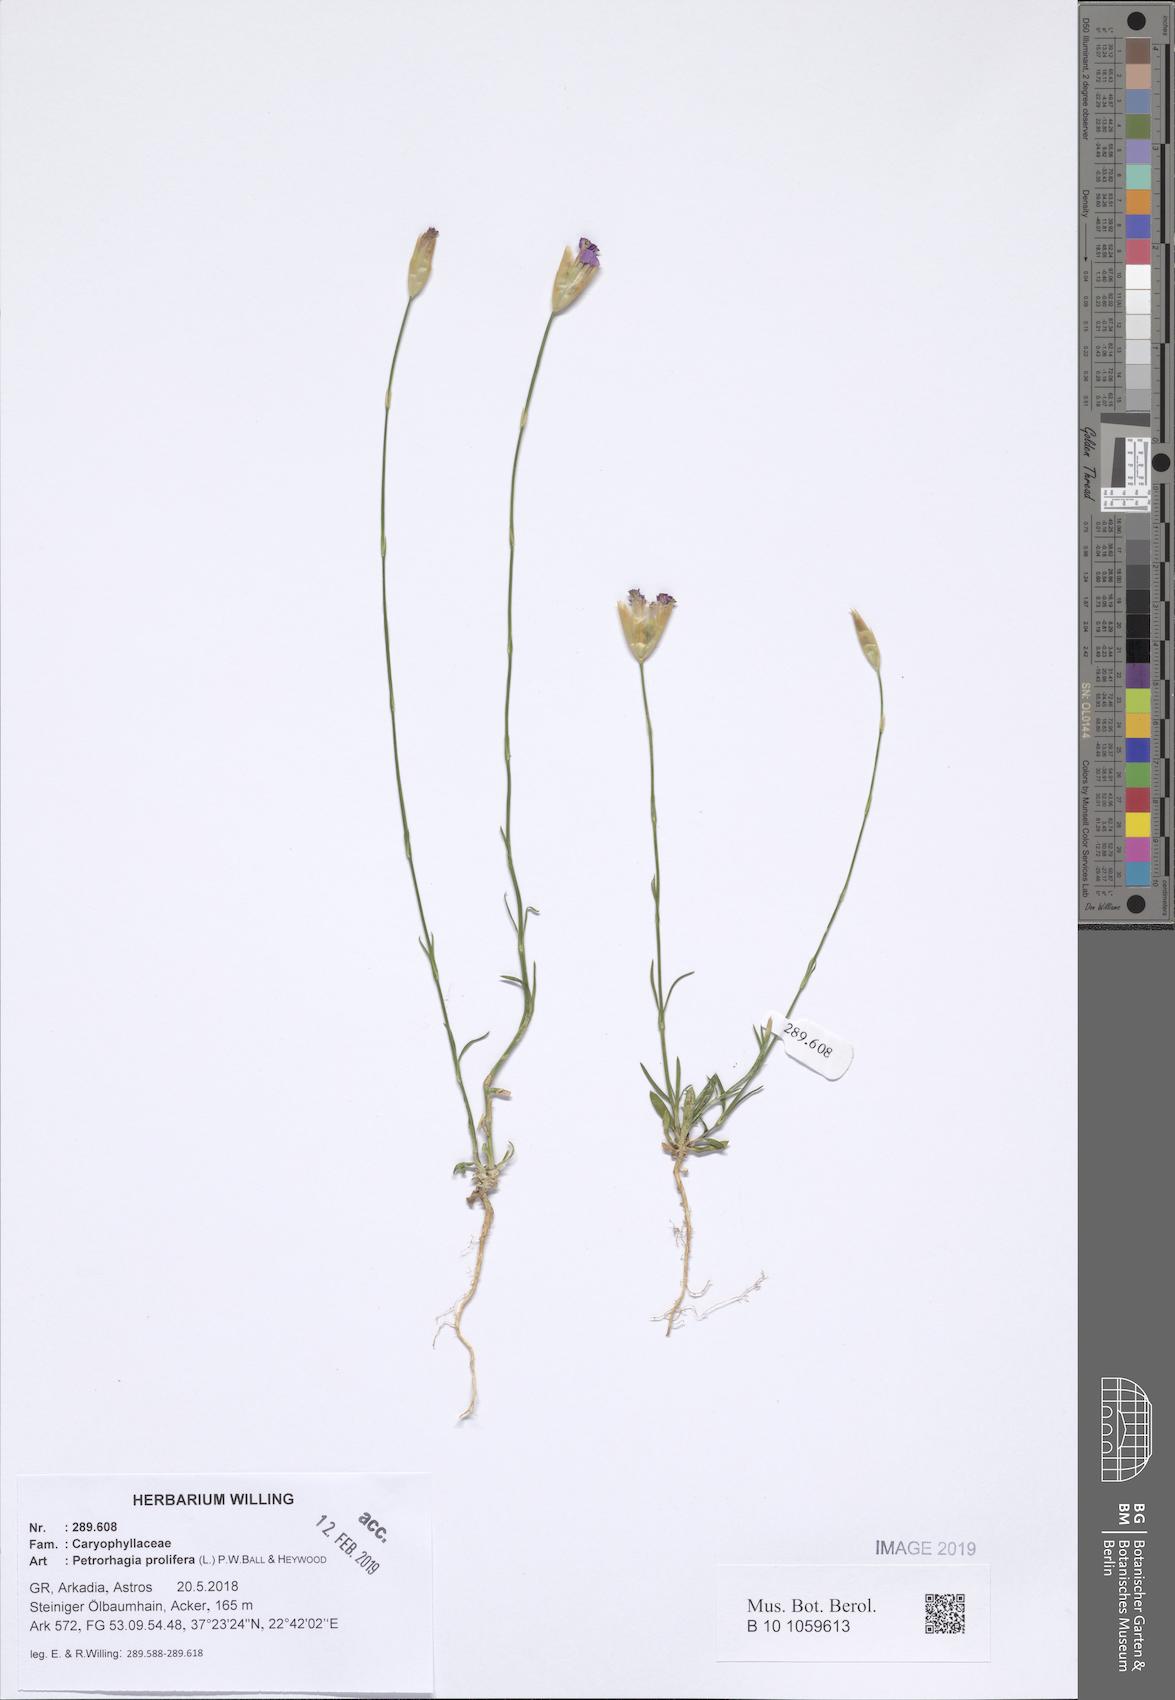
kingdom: Plantae
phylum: Tracheophyta
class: Magnoliopsida
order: Caryophyllales
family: Caryophyllaceae
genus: Petrorhagia
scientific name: Petrorhagia prolifera
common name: Proliferous pink
